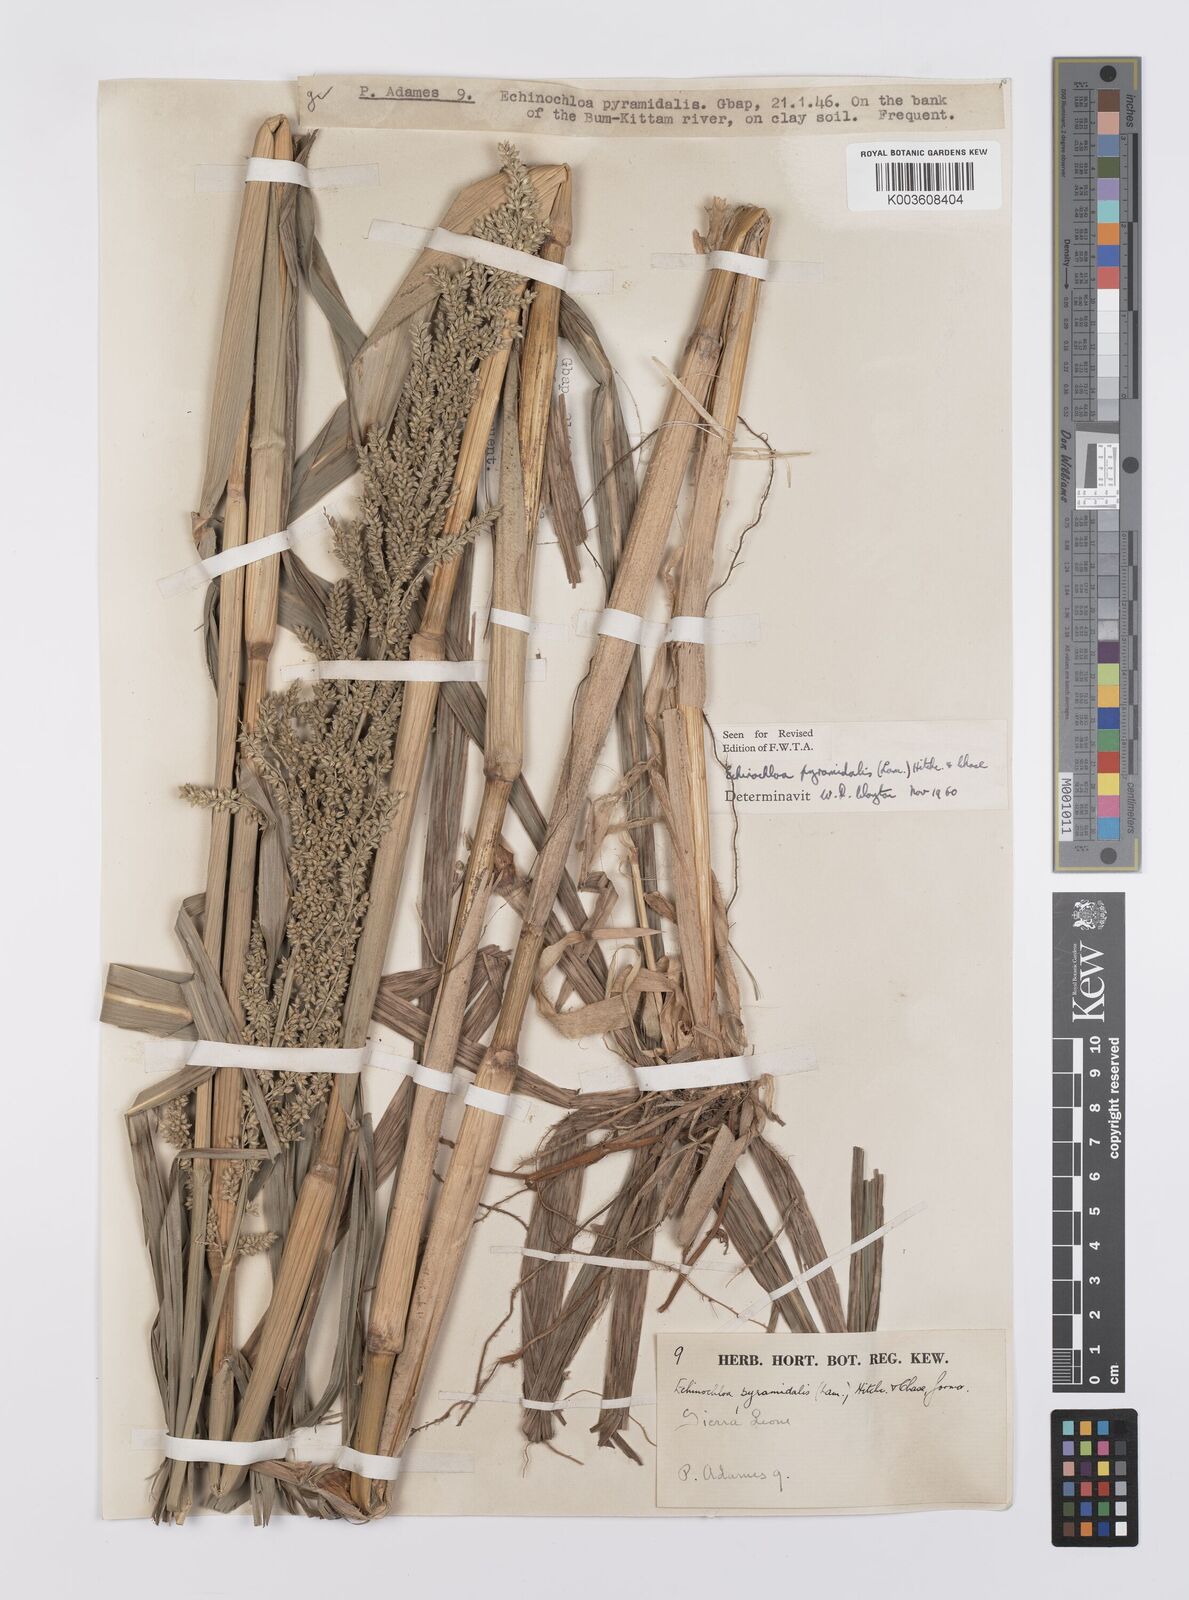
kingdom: Plantae
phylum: Tracheophyta
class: Liliopsida
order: Poales
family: Poaceae
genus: Echinochloa
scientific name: Echinochloa pyramidalis
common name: Antelope grass
